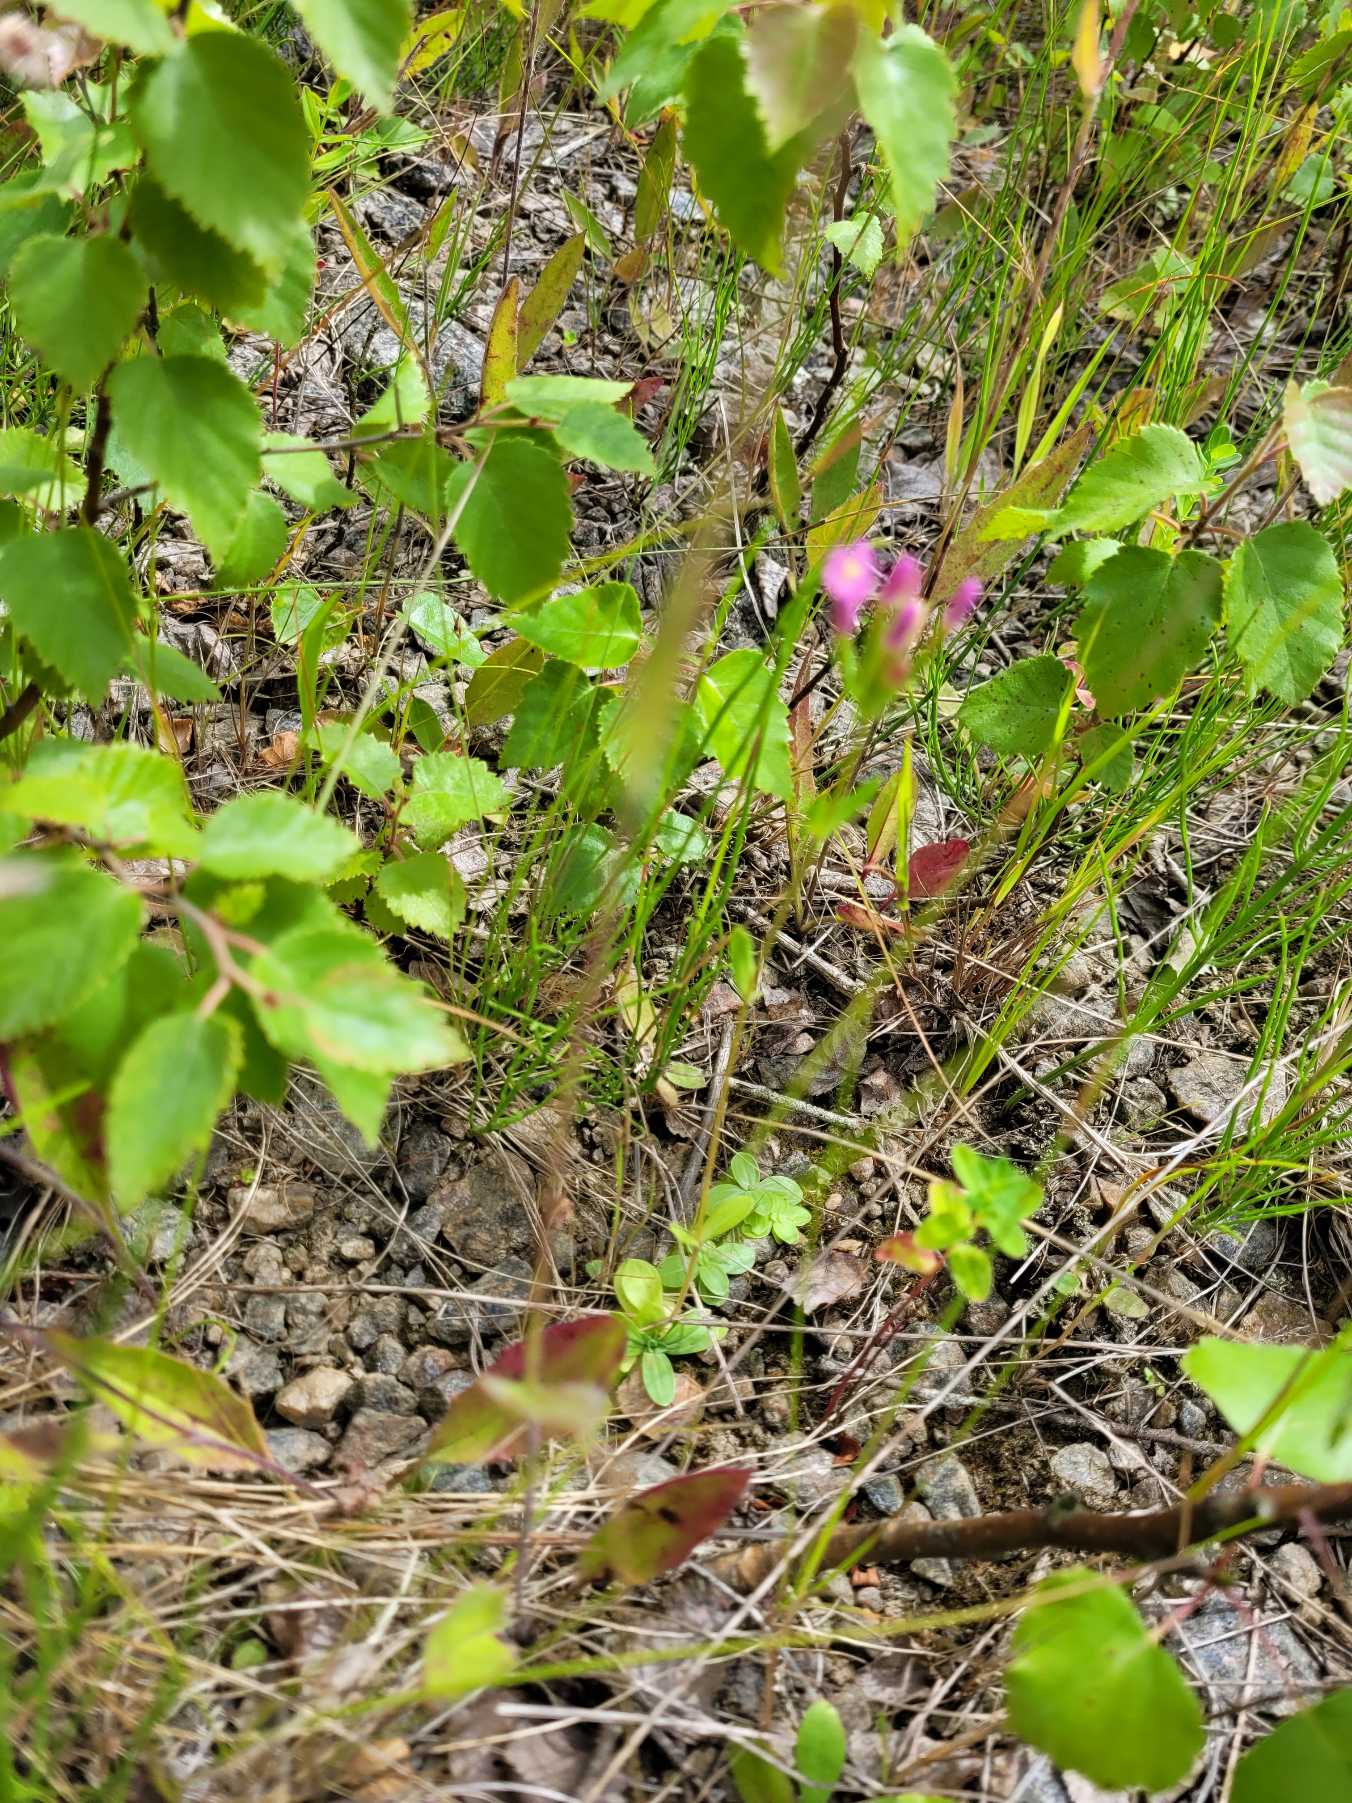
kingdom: Plantae
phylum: Tracheophyta
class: Magnoliopsida
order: Gentianales
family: Gentianaceae
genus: Centaurium
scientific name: Centaurium
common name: Tusindgyldenslægten
